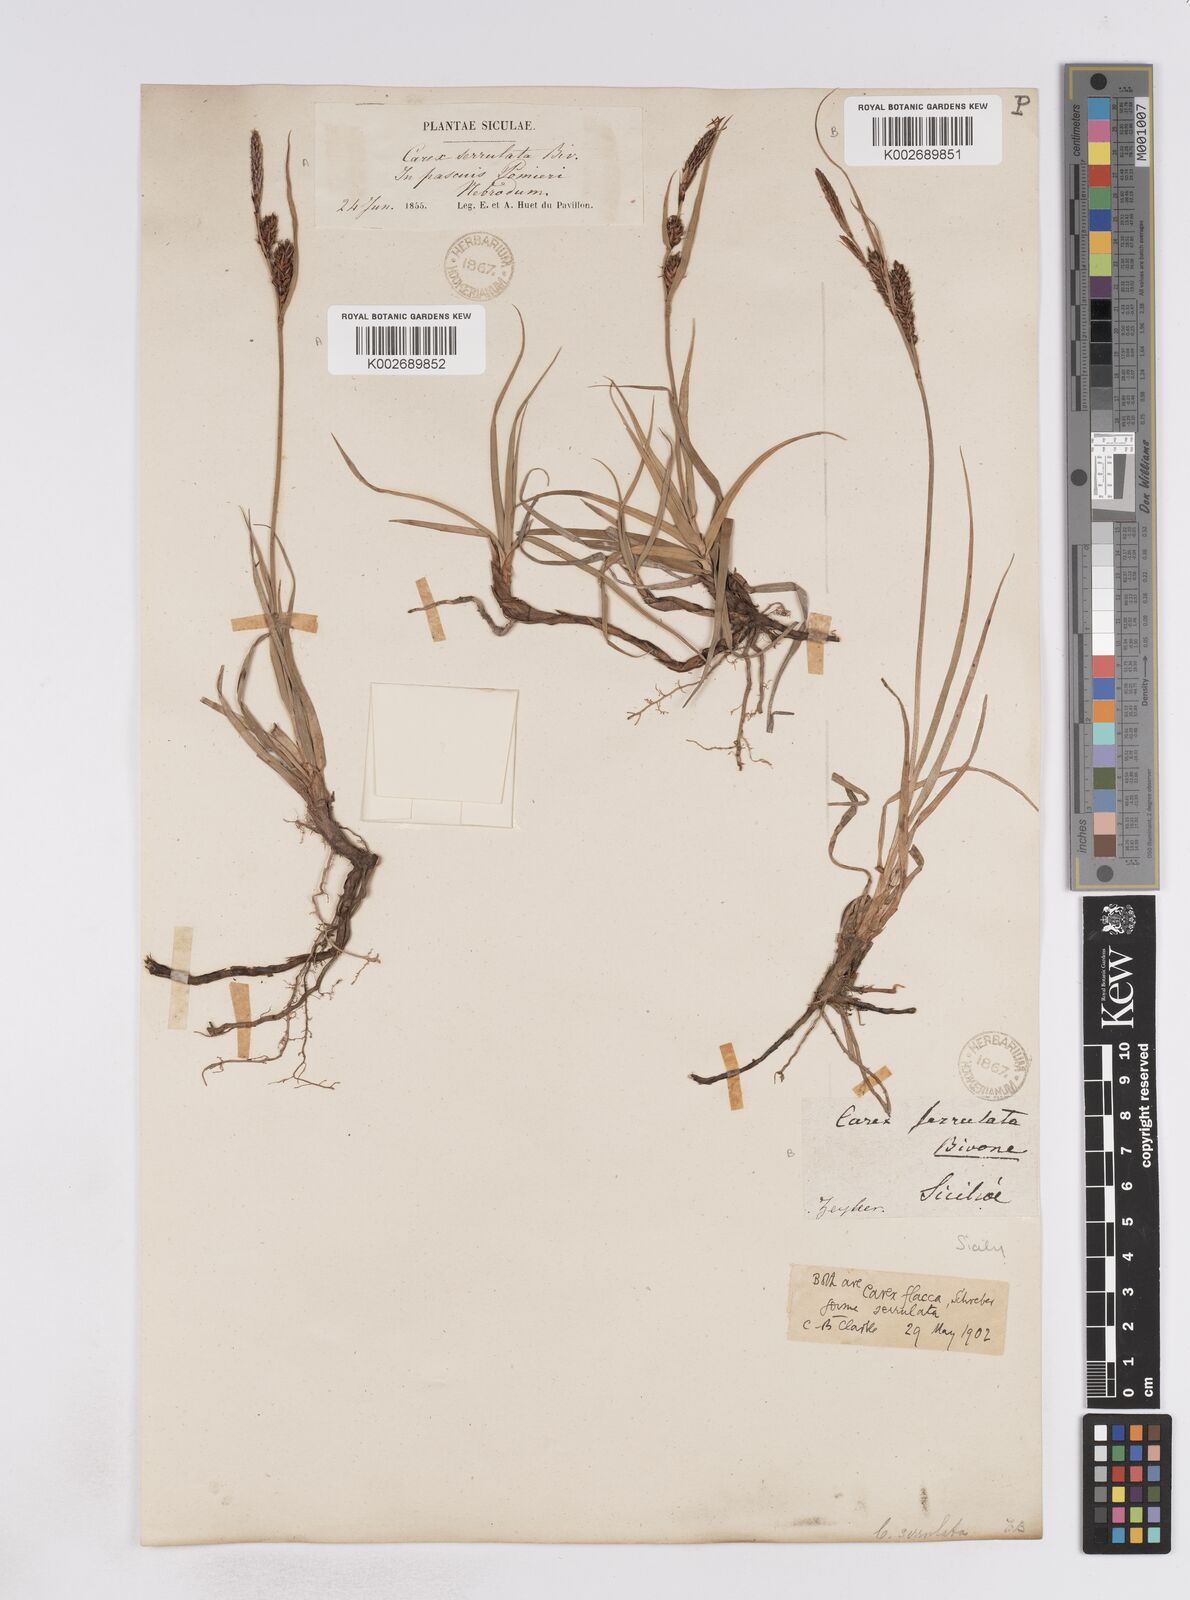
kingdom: Plantae
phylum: Tracheophyta
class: Liliopsida
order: Poales
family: Cyperaceae
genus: Carex
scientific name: Carex flacca
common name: Glaucous sedge
